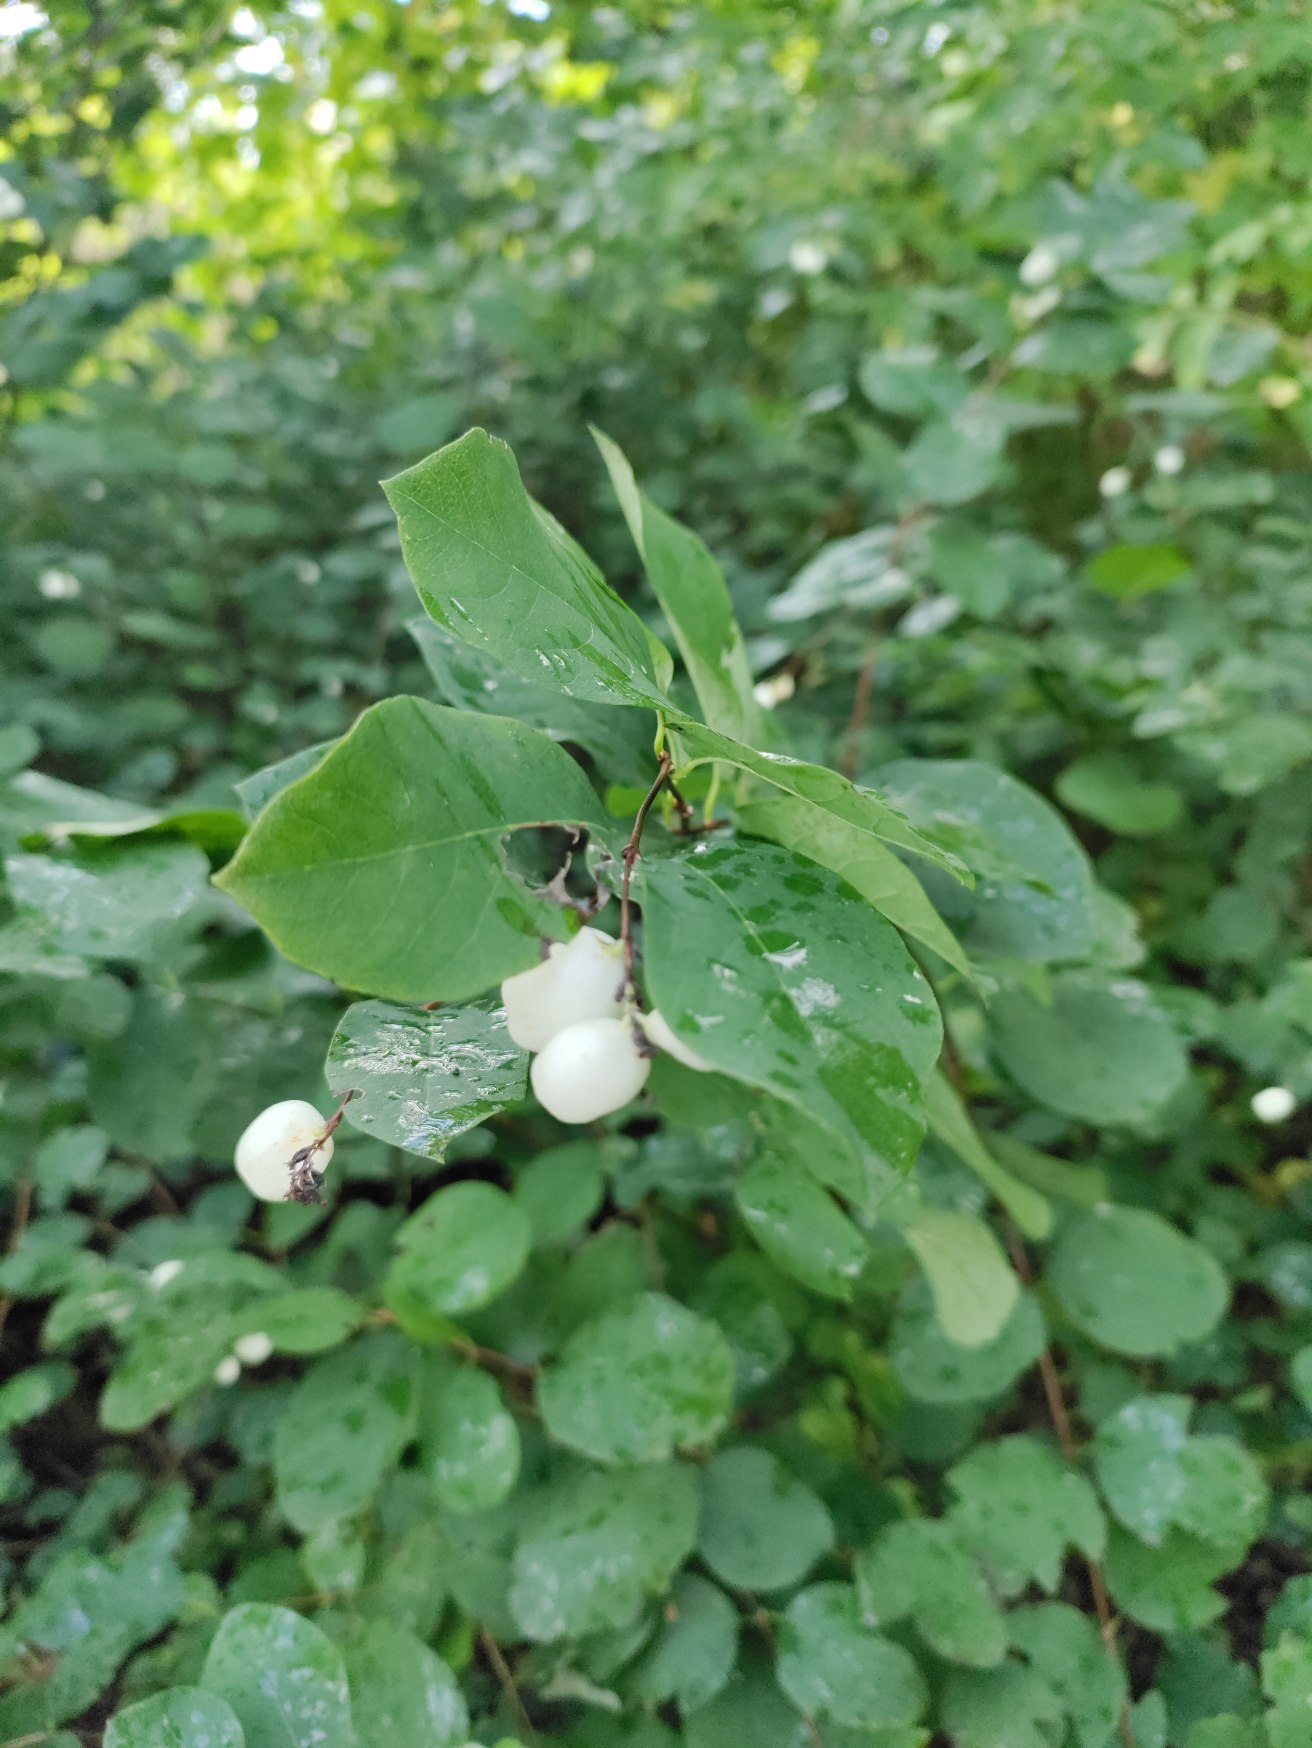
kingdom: Plantae
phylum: Tracheophyta
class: Magnoliopsida
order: Dipsacales
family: Caprifoliaceae
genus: Symphoricarpos
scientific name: Symphoricarpos albus
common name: Almindelig snebær
